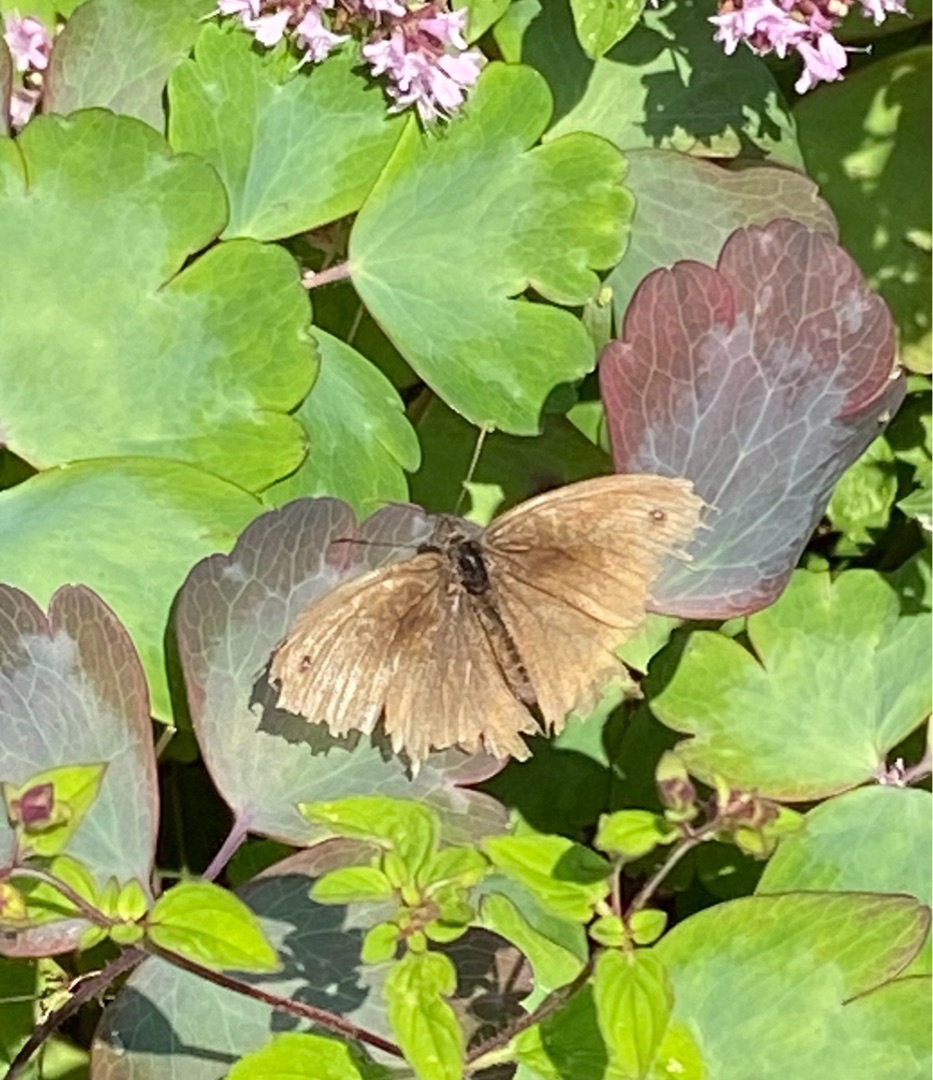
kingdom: Animalia
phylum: Arthropoda
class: Insecta
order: Lepidoptera
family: Nymphalidae
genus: Maniola
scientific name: Maniola jurtina
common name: Græsrandøje
